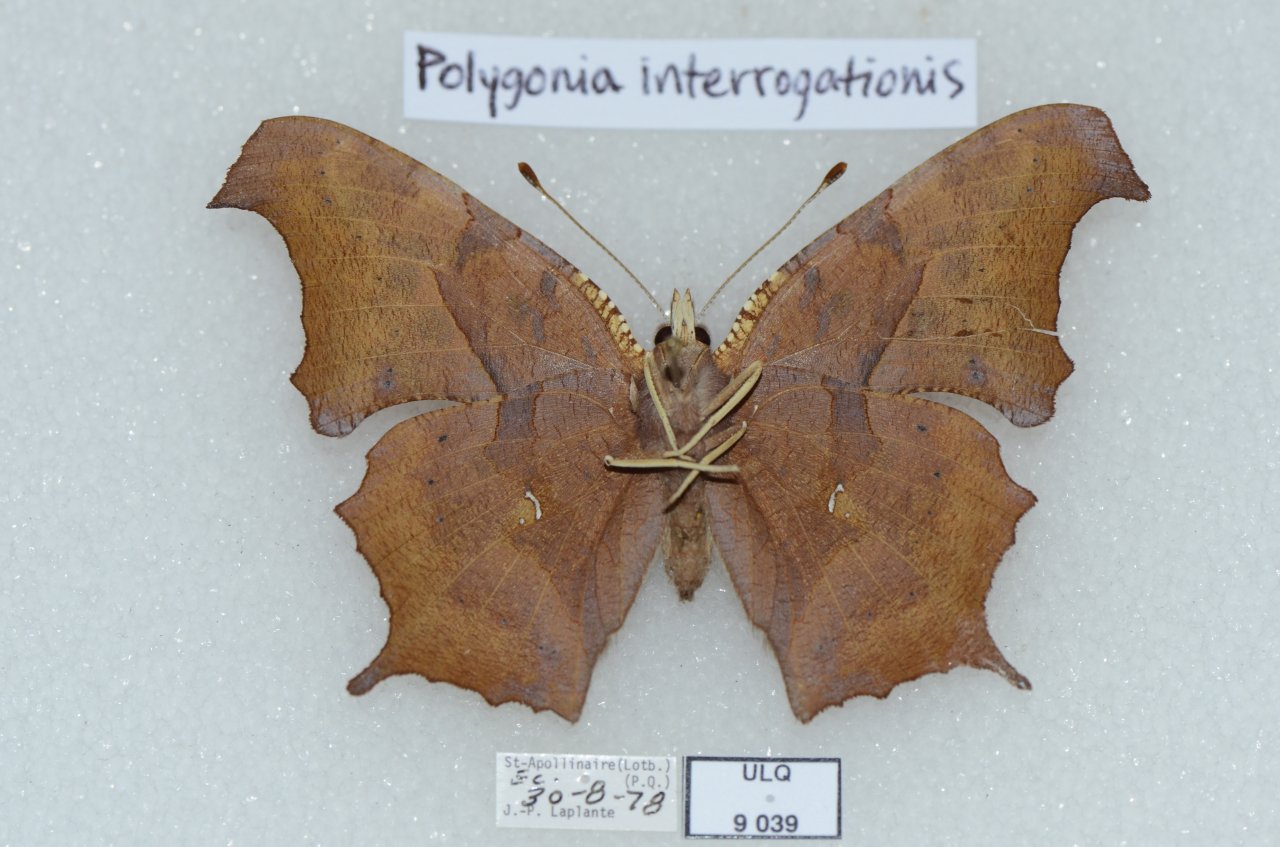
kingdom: Animalia
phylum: Arthropoda
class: Insecta
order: Lepidoptera
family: Nymphalidae
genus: Polygonia
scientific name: Polygonia interrogationis
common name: Question Mark
